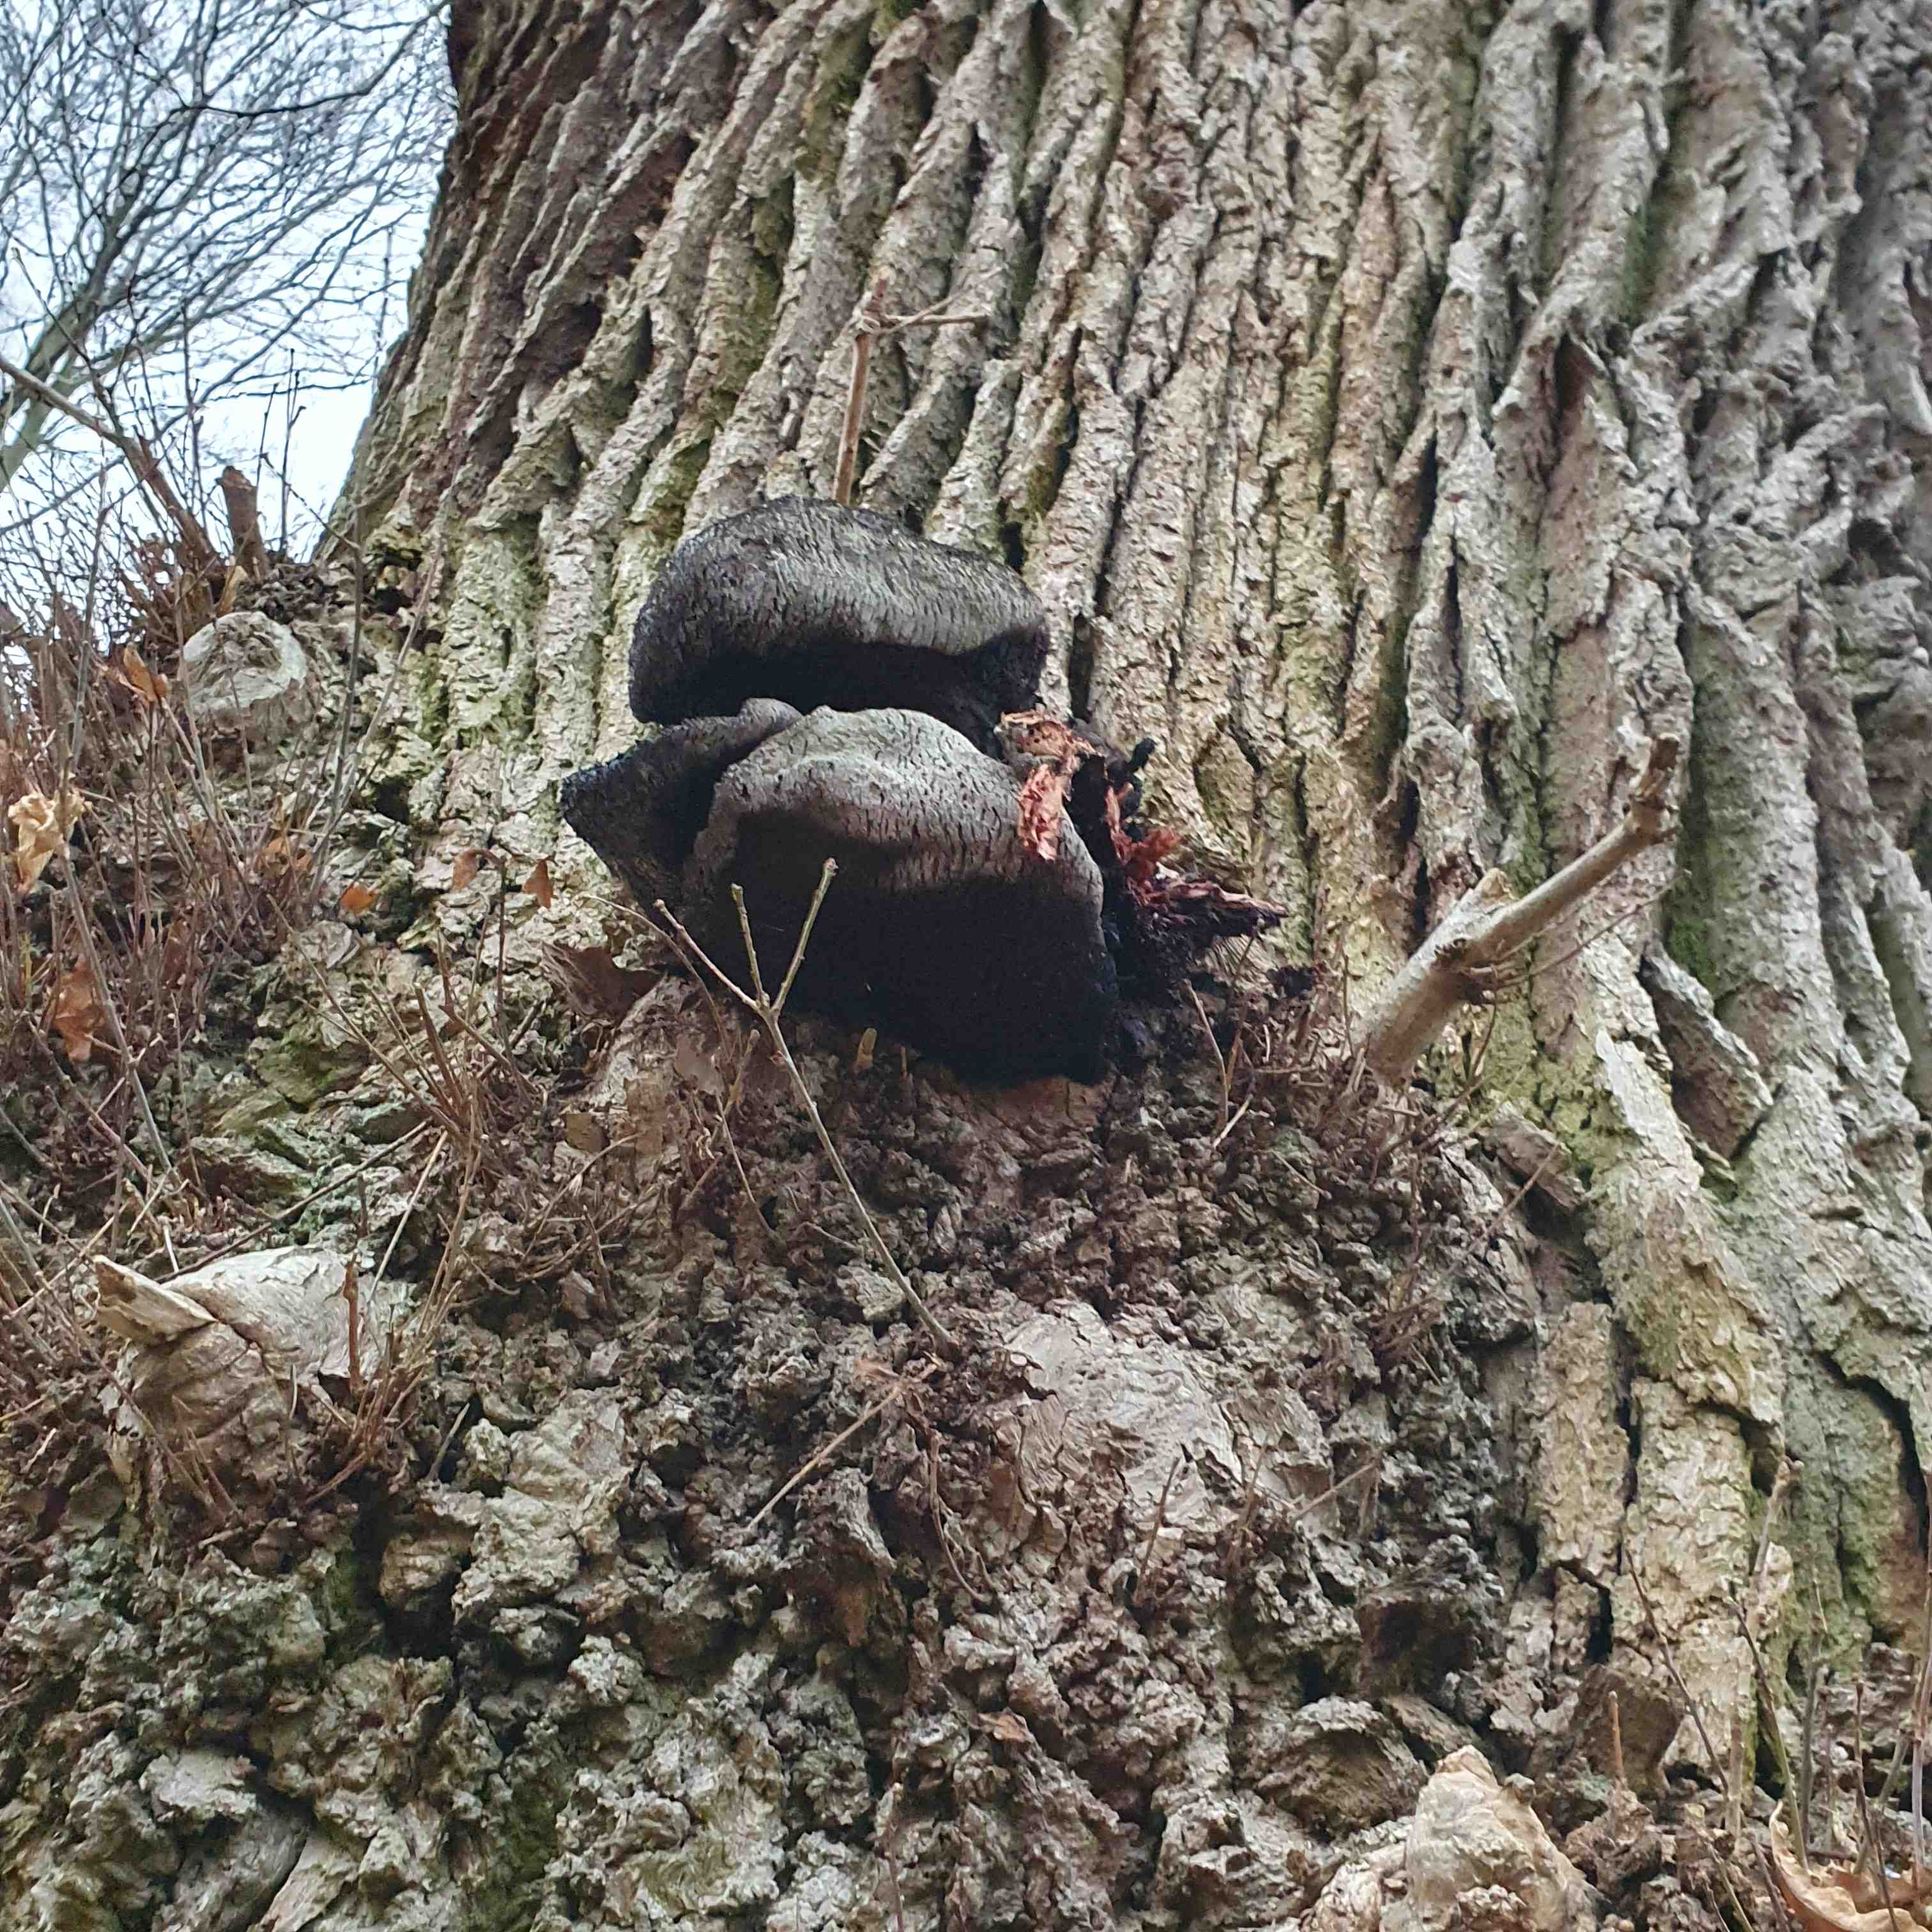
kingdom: Fungi
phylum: Basidiomycota
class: Agaricomycetes
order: Agaricales
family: Fistulinaceae
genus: Fistulina
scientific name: Fistulina hepatica
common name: oksetunge
